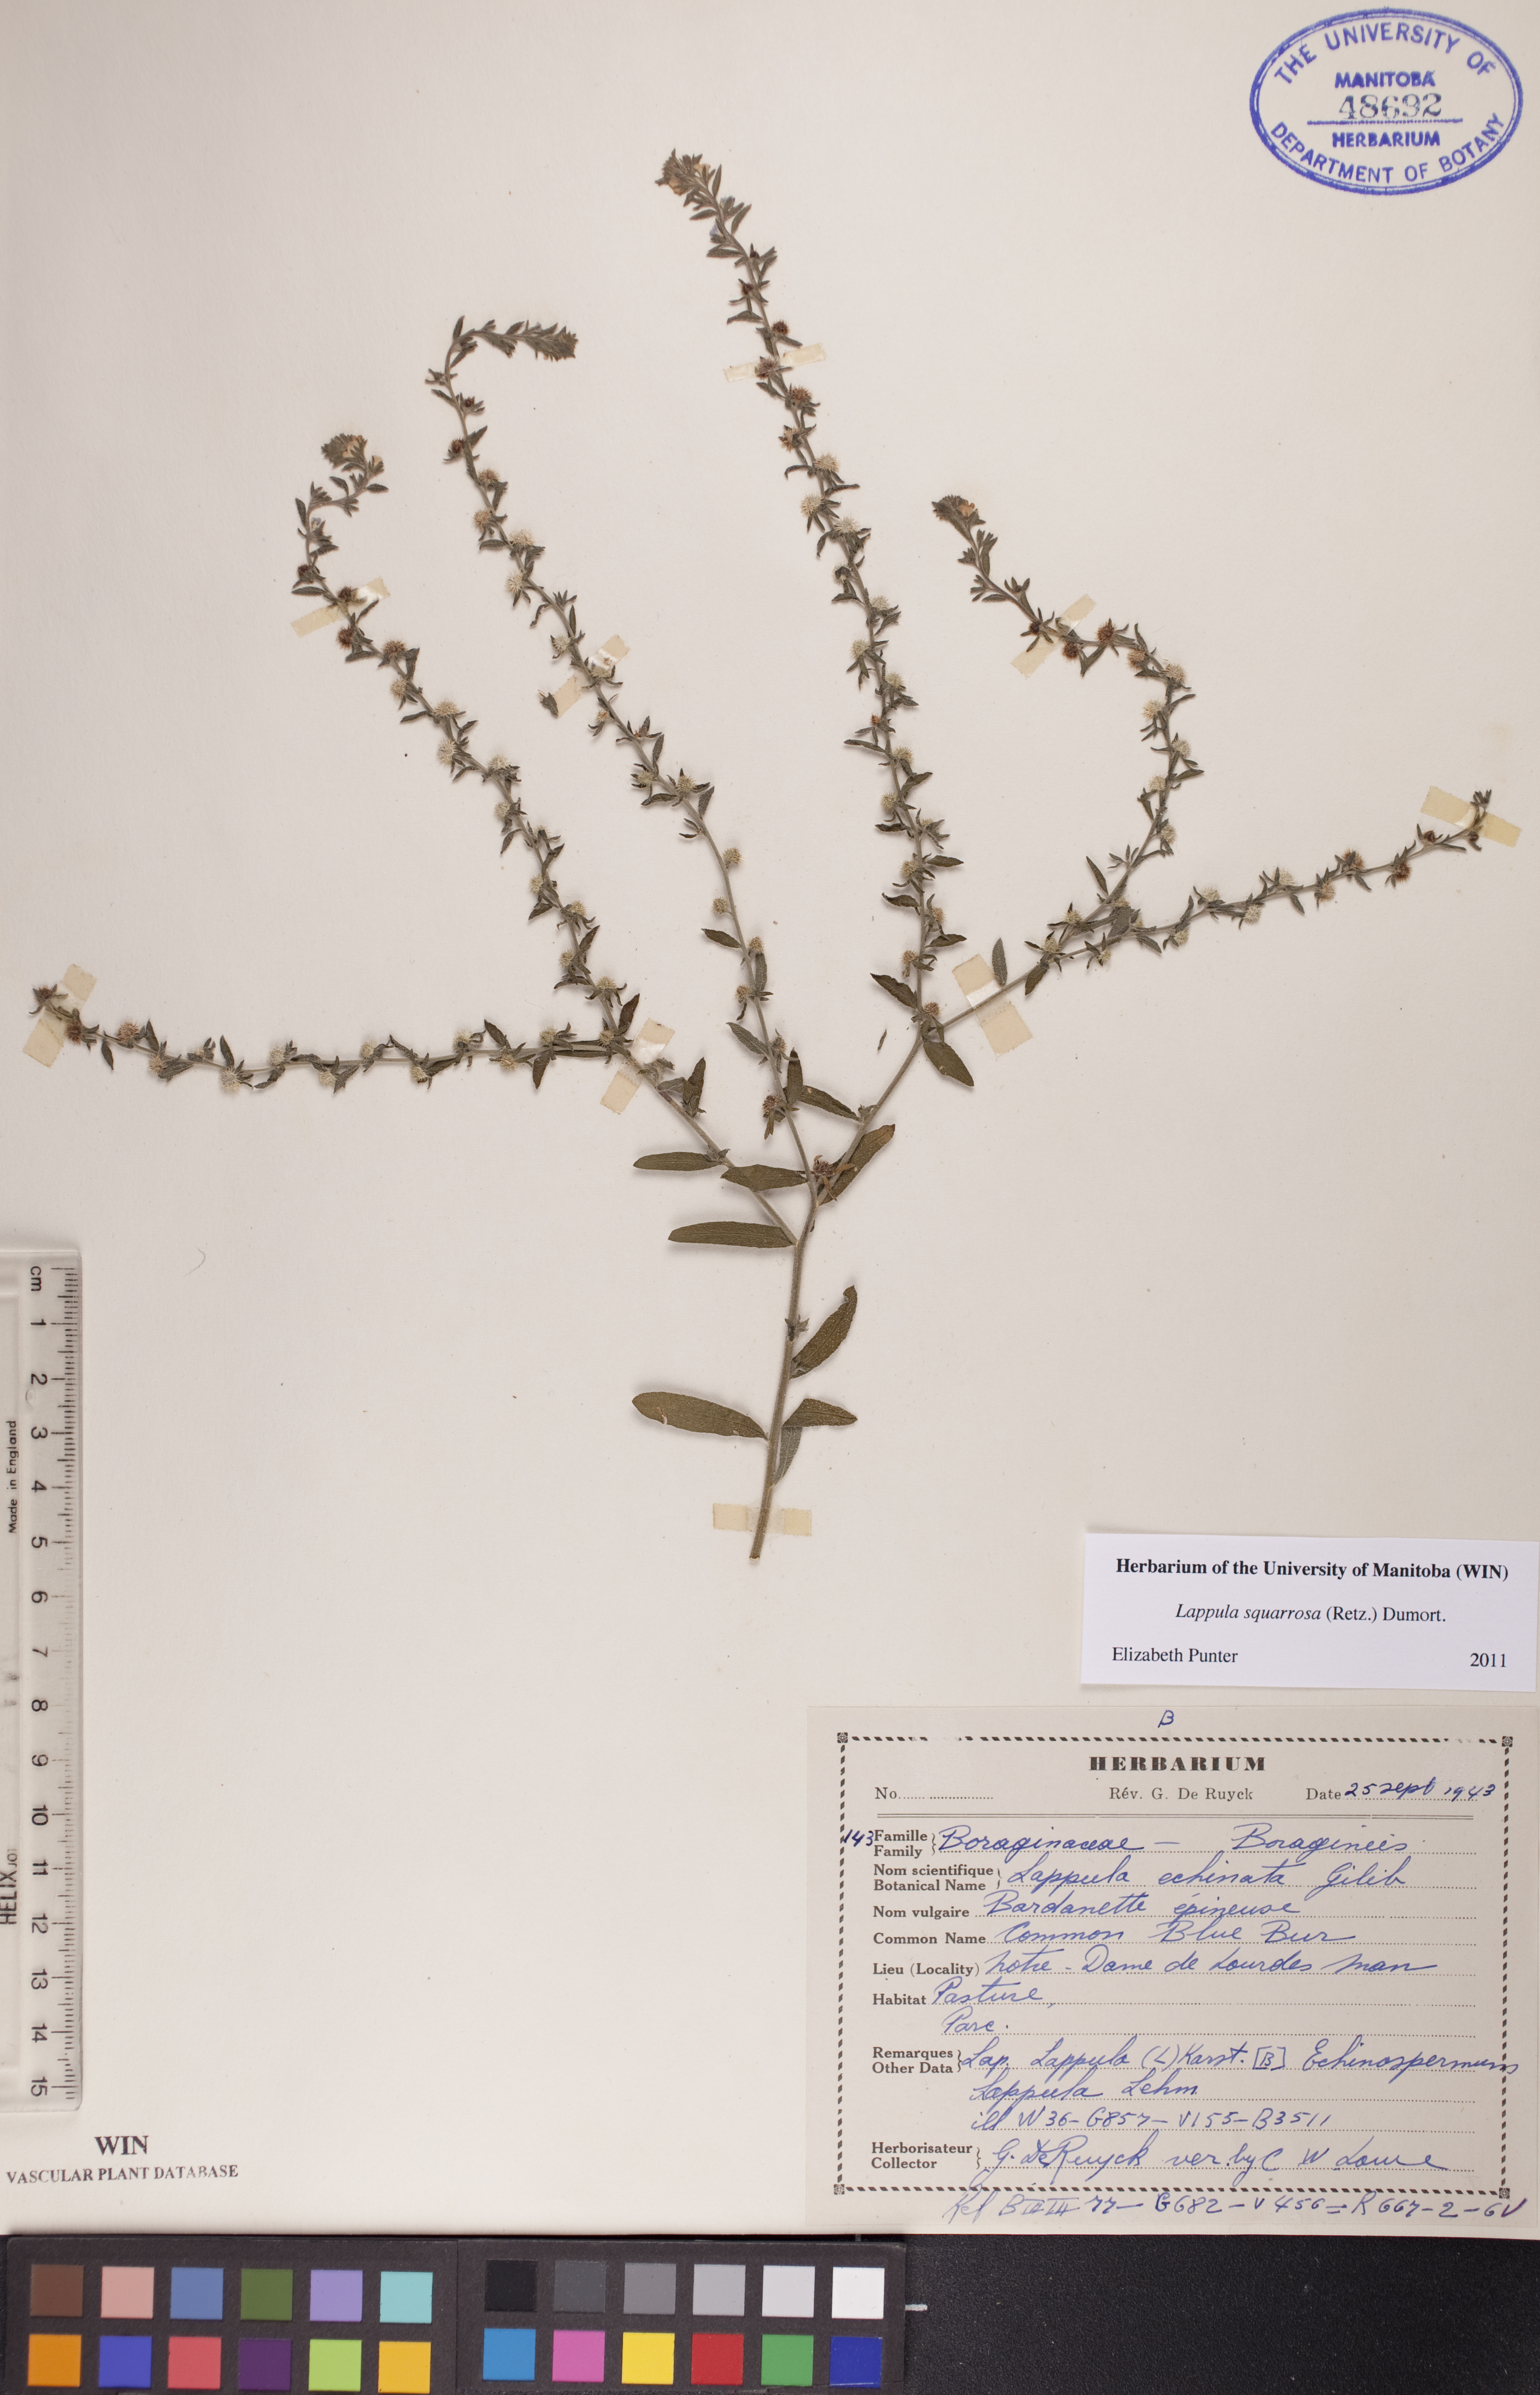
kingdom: Plantae
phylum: Tracheophyta
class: Magnoliopsida
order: Boraginales
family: Boraginaceae
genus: Lappula
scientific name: Lappula squarrosa
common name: European stickseed
